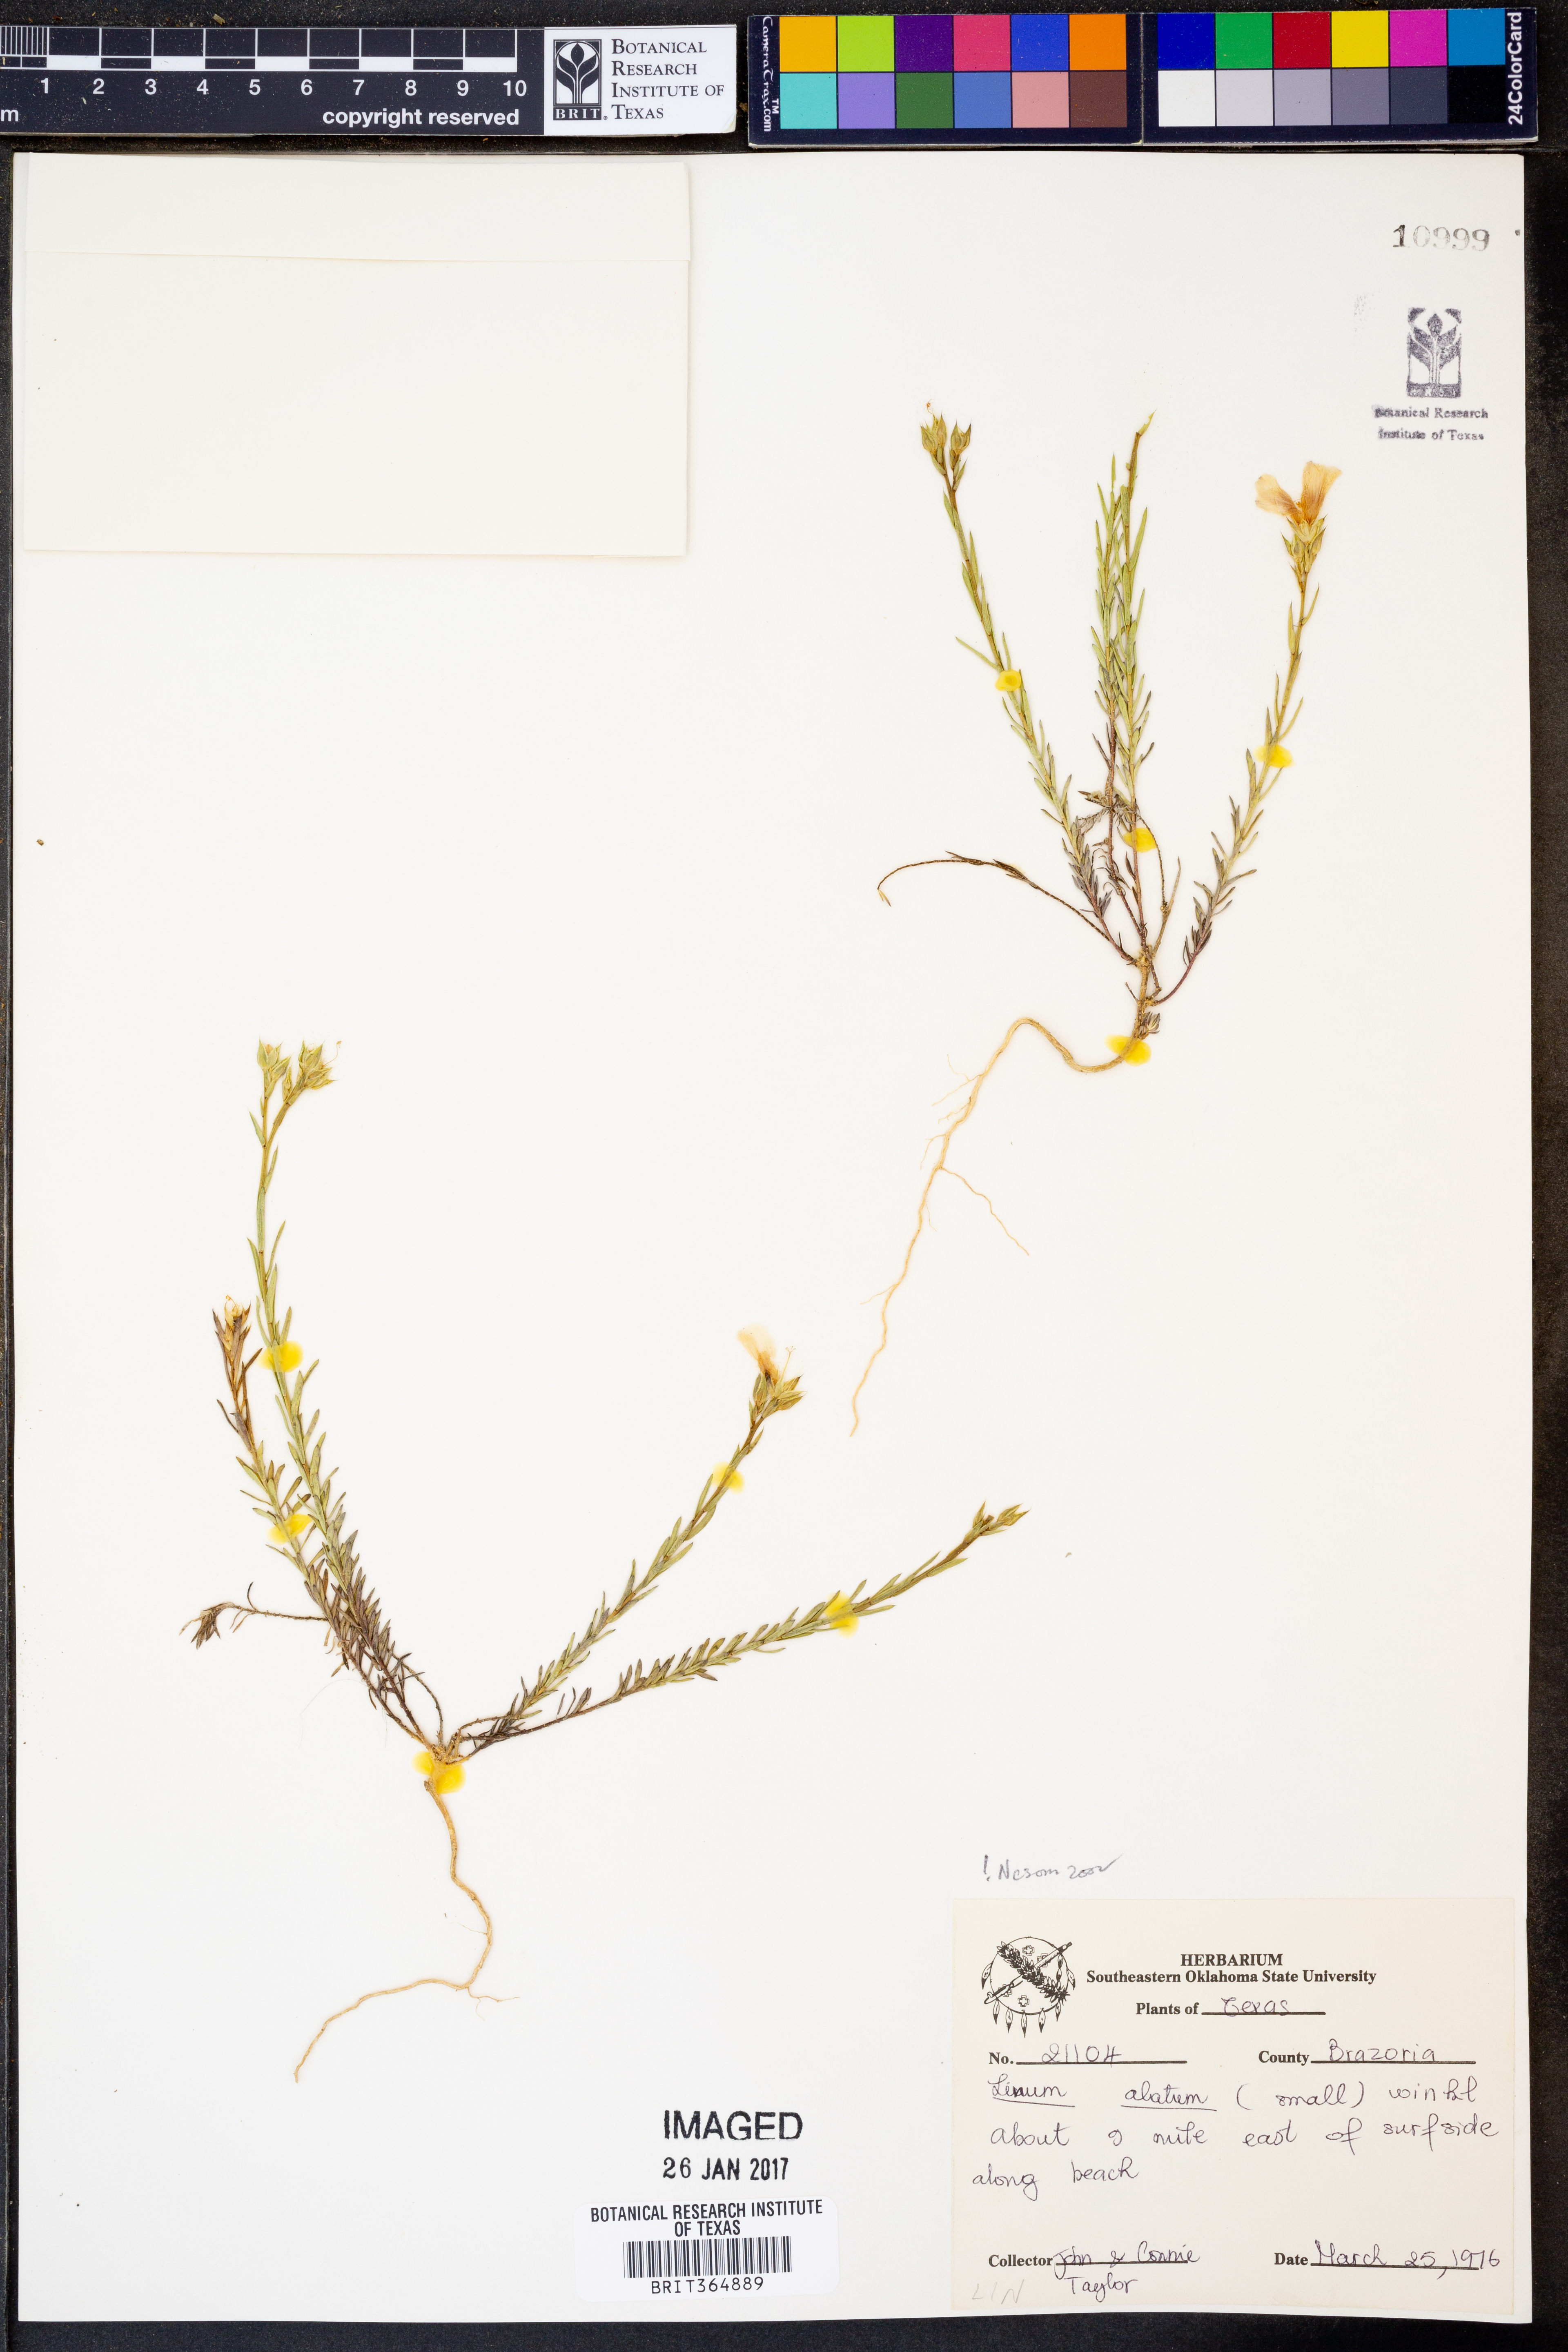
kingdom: Plantae
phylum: Tracheophyta
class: Magnoliopsida
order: Malpighiales
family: Linaceae
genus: Linum
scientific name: Linum alatum
